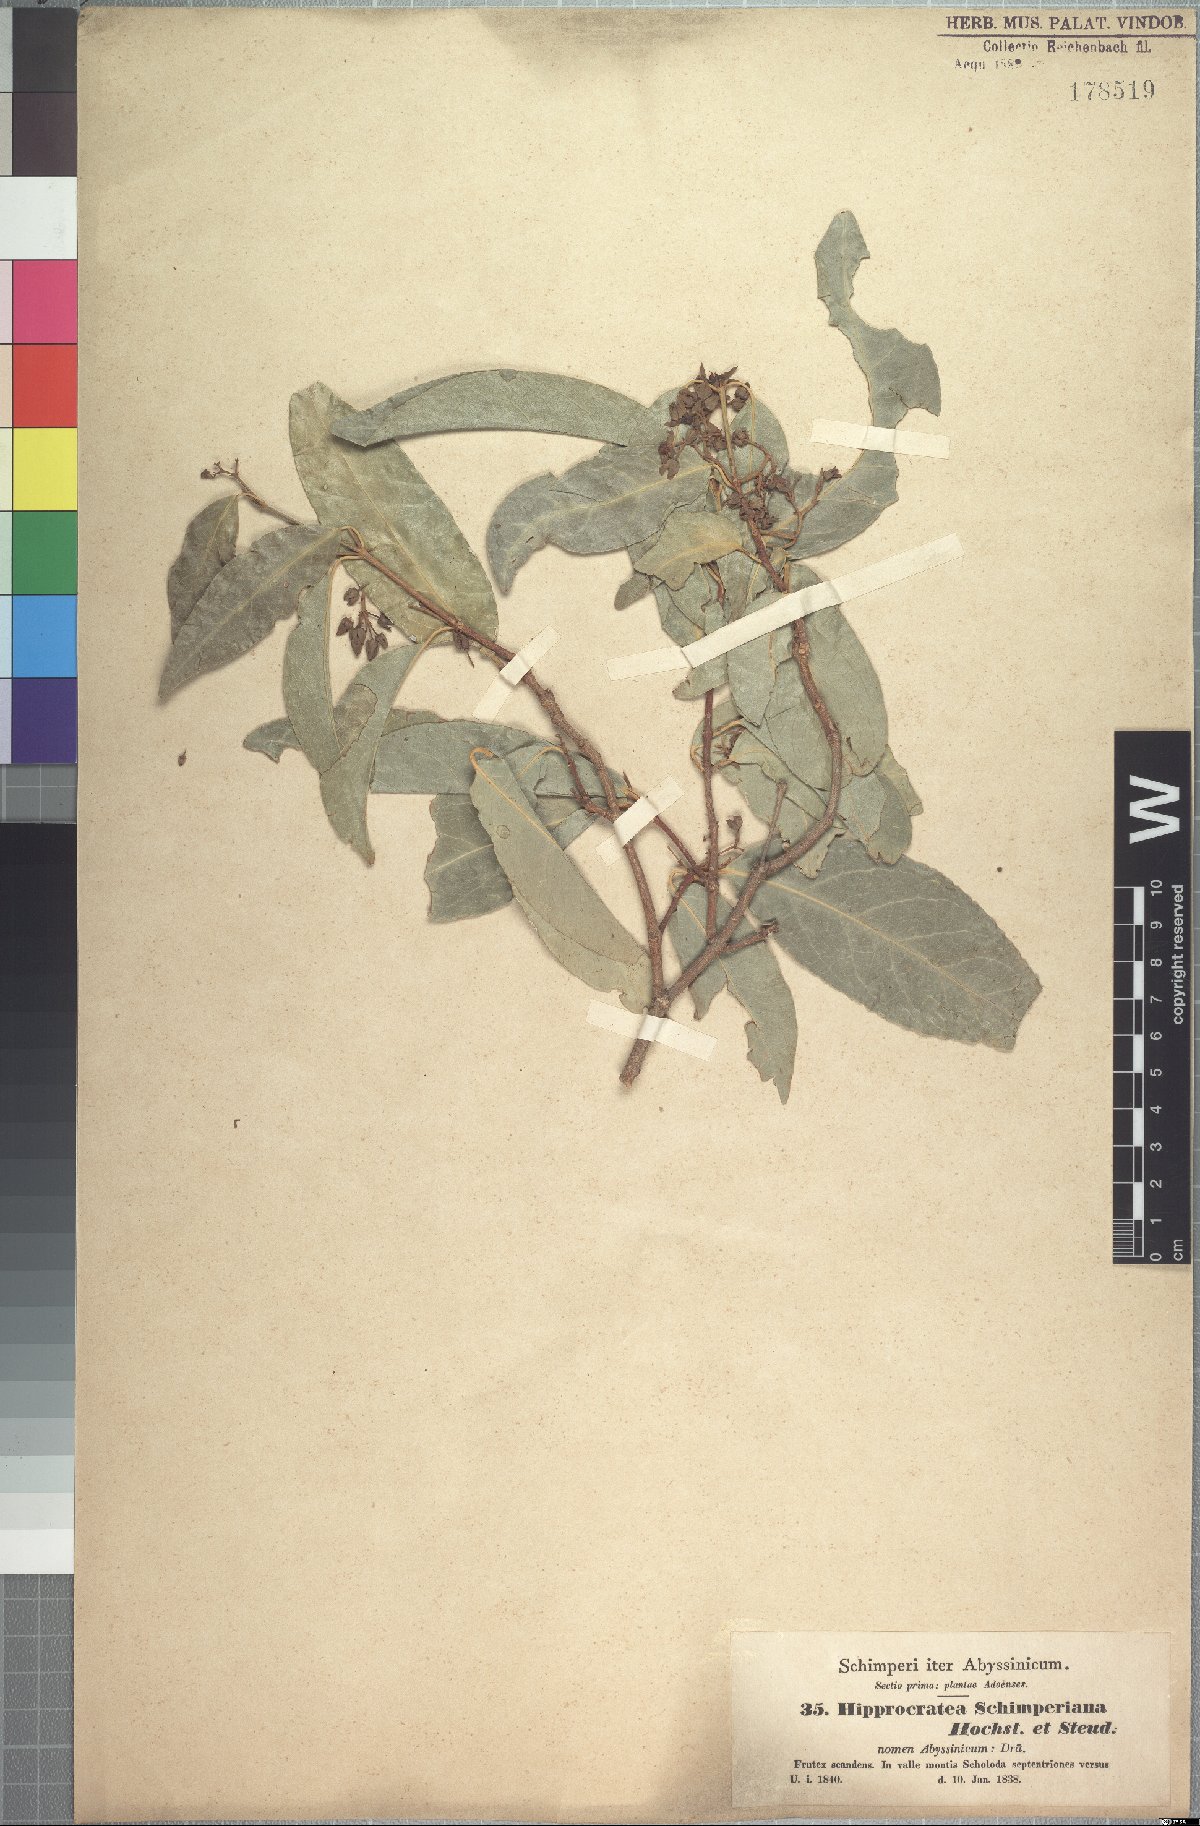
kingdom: Plantae
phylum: Tracheophyta
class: Magnoliopsida
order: Celastrales
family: Celastraceae
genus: Loeseneriella
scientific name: Loeseneriella africana
